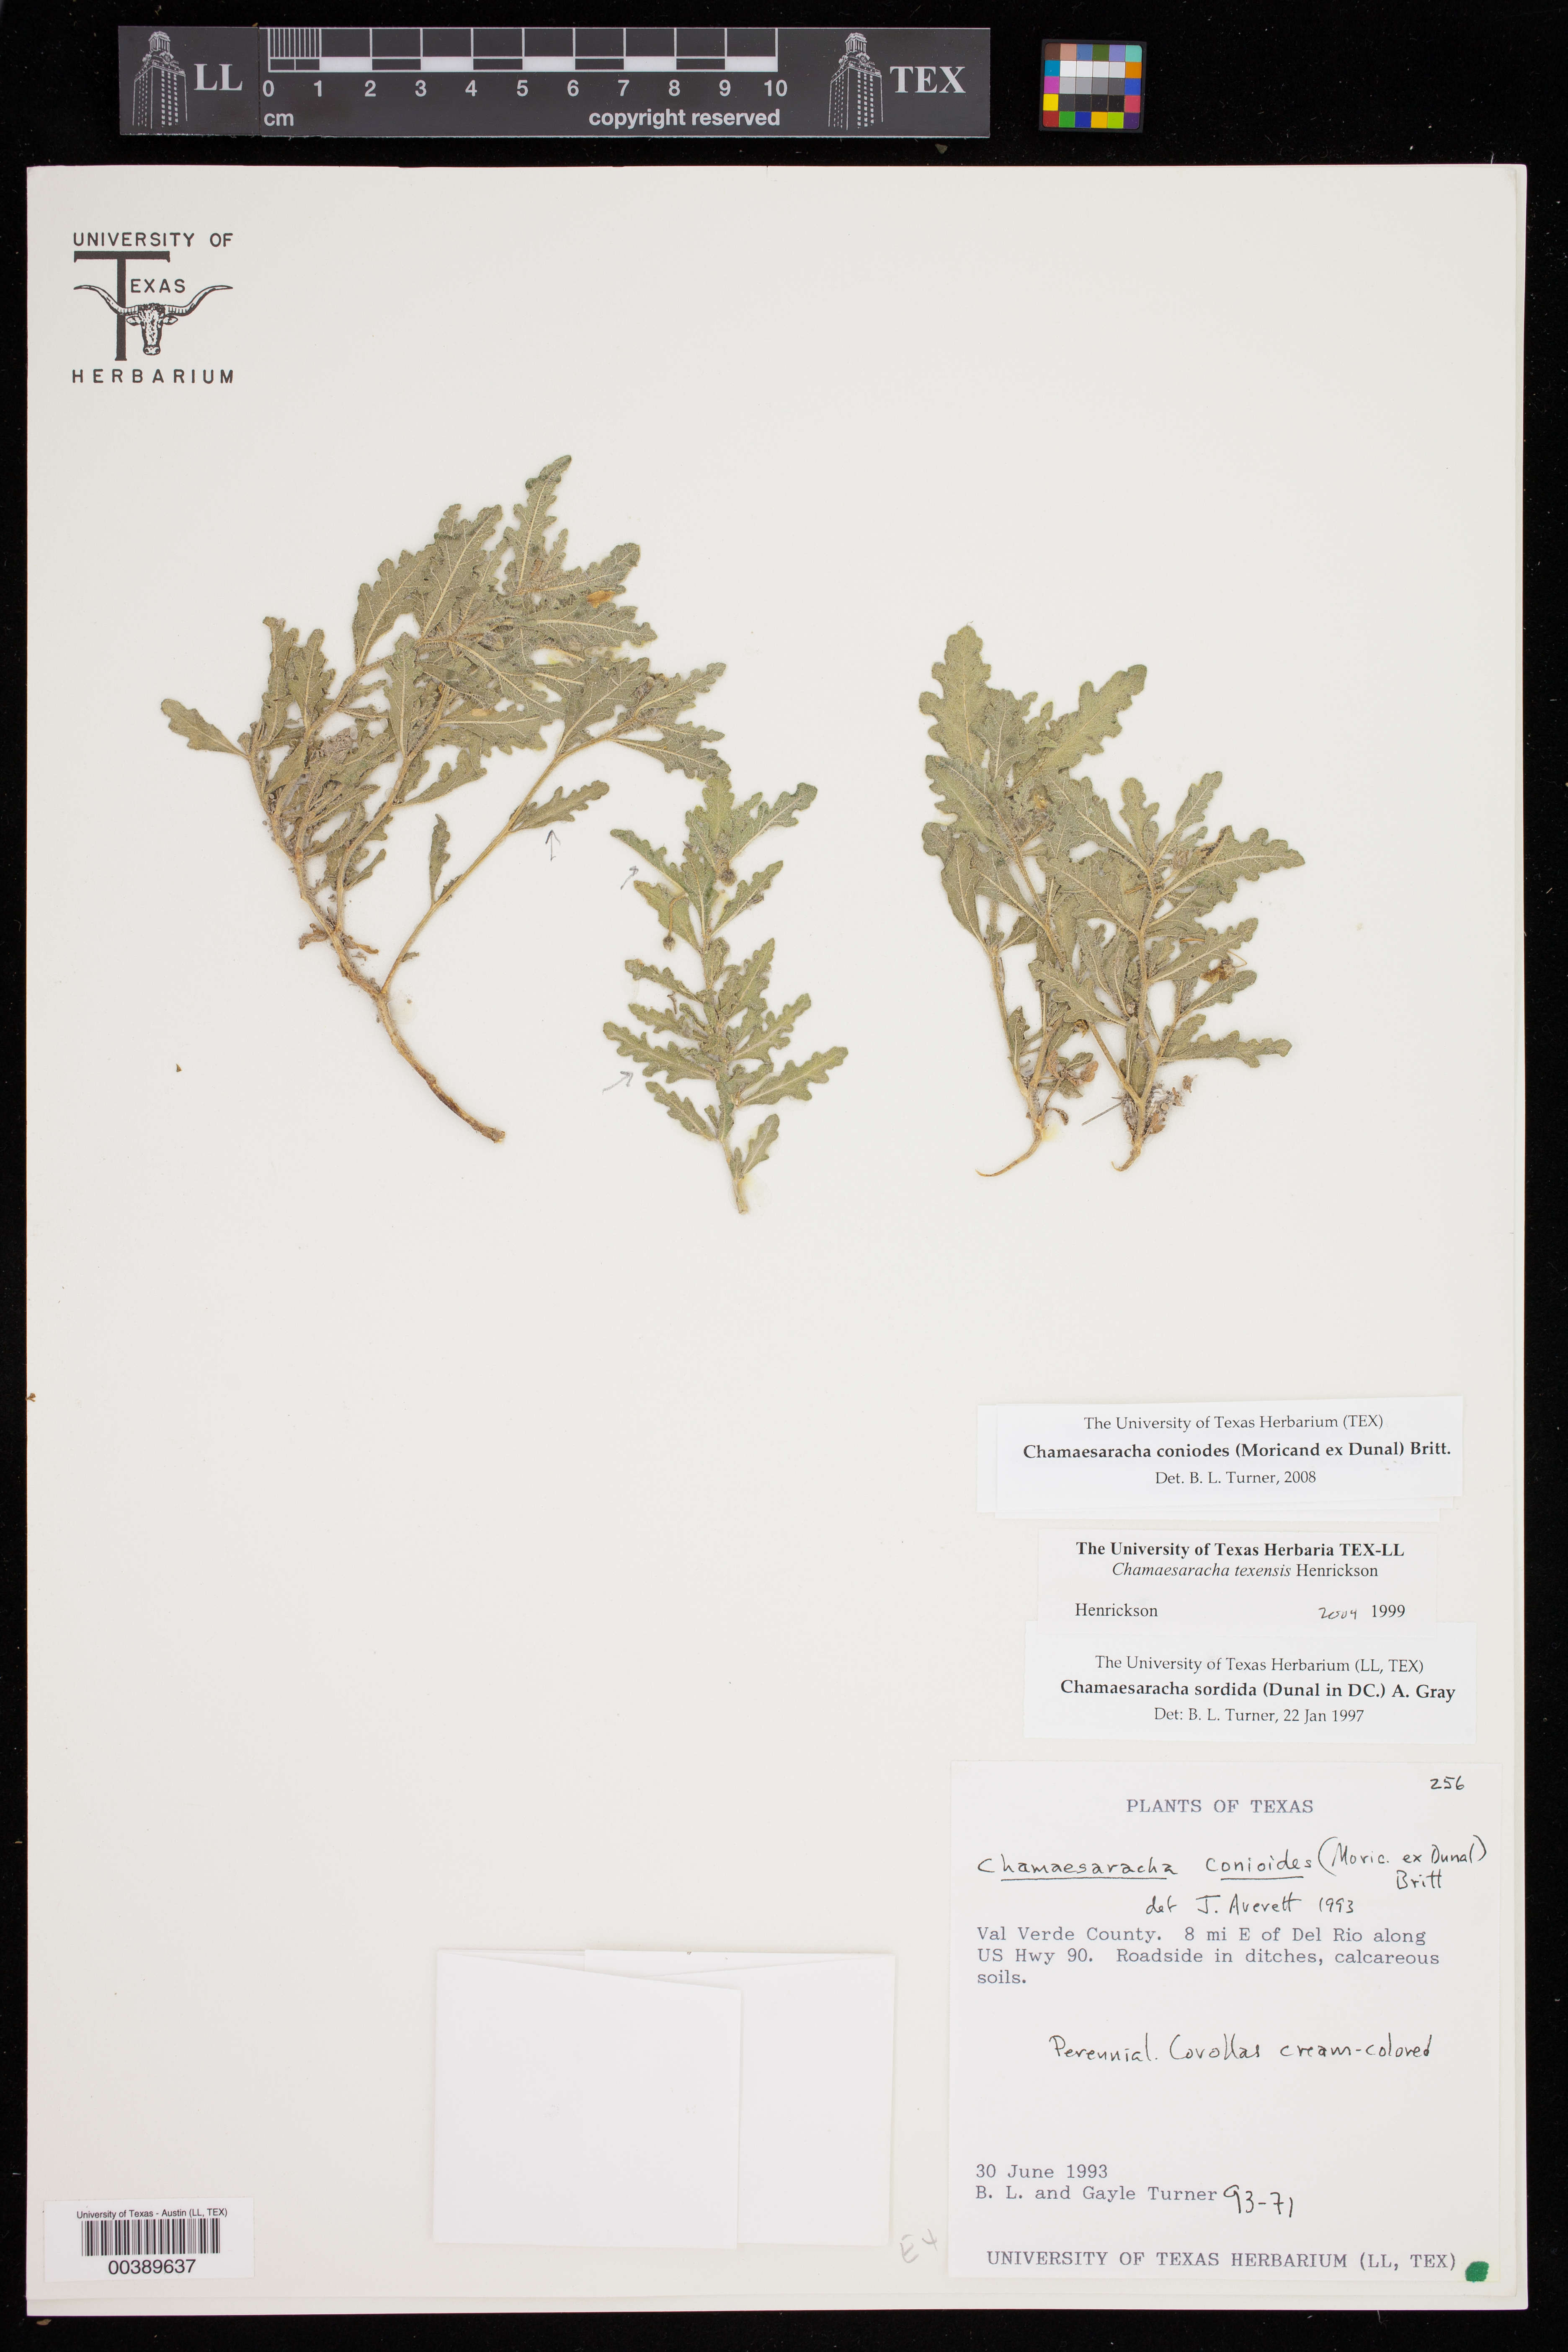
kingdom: Plantae
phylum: Tracheophyta
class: Magnoliopsida
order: Solanales
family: Solanaceae
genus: Chamaesaracha
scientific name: Chamaesaracha texensis
